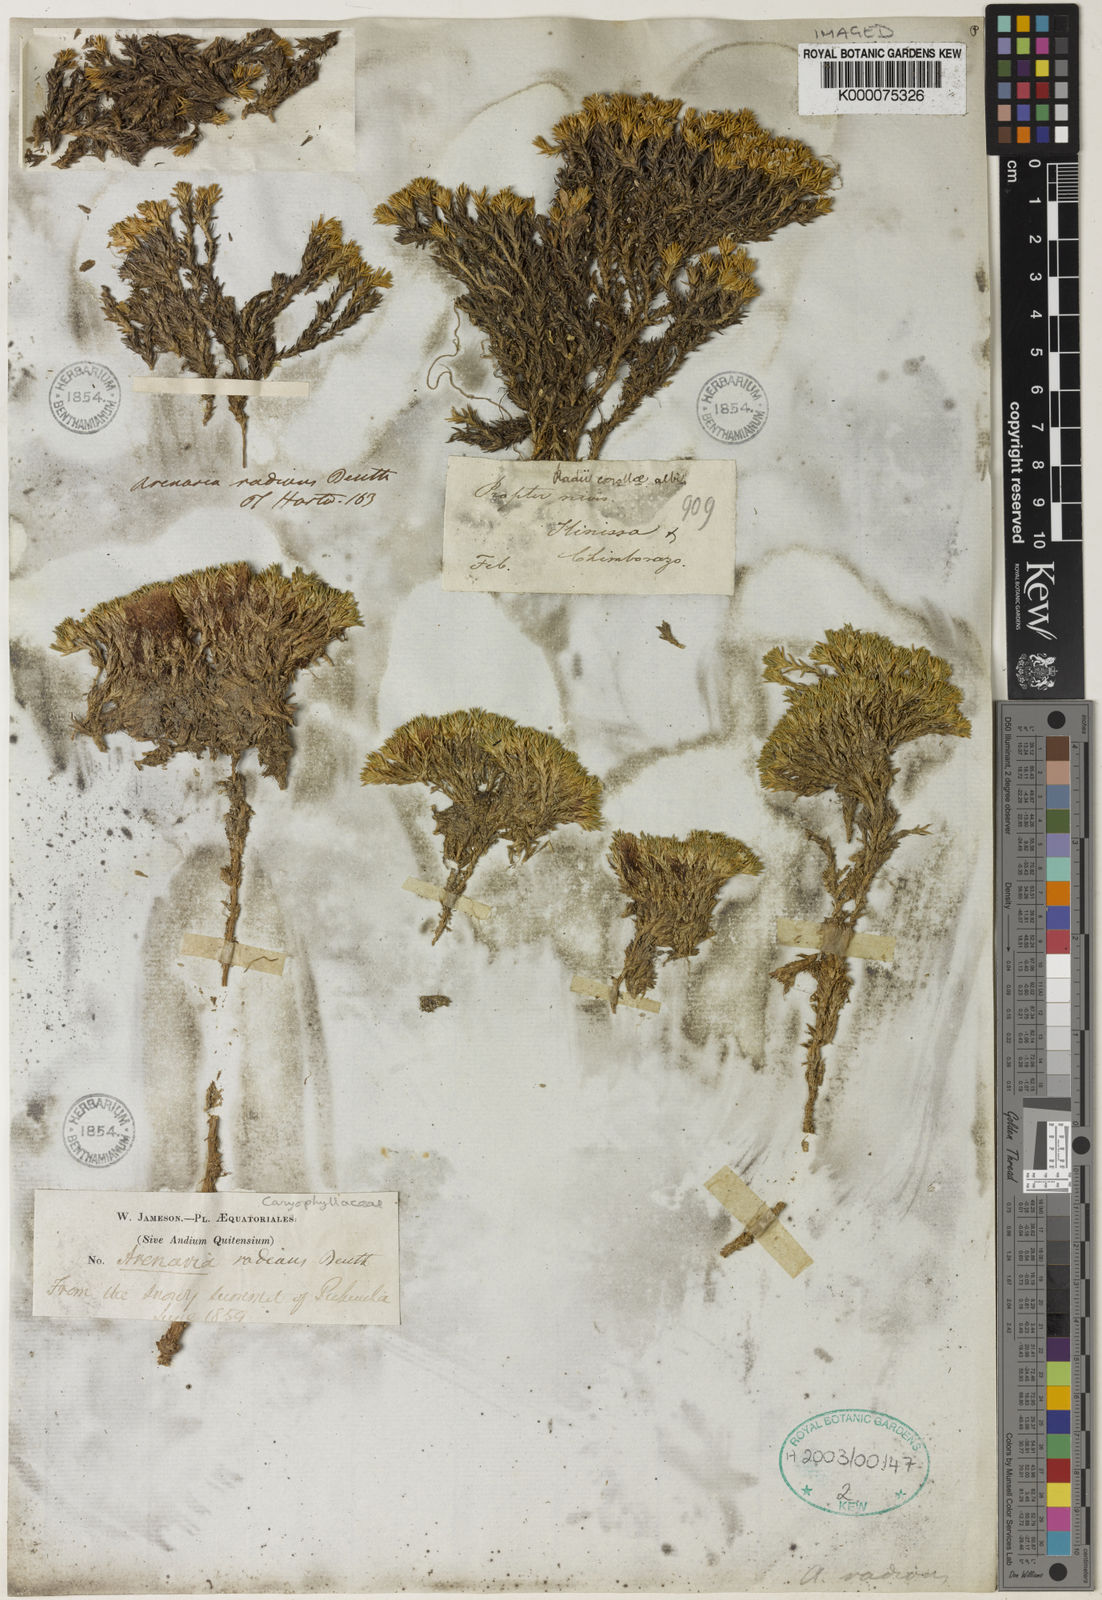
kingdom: Plantae
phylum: Tracheophyta
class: Magnoliopsida
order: Caryophyllales
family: Caryophyllaceae
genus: Arenaria
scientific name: Arenaria radians
